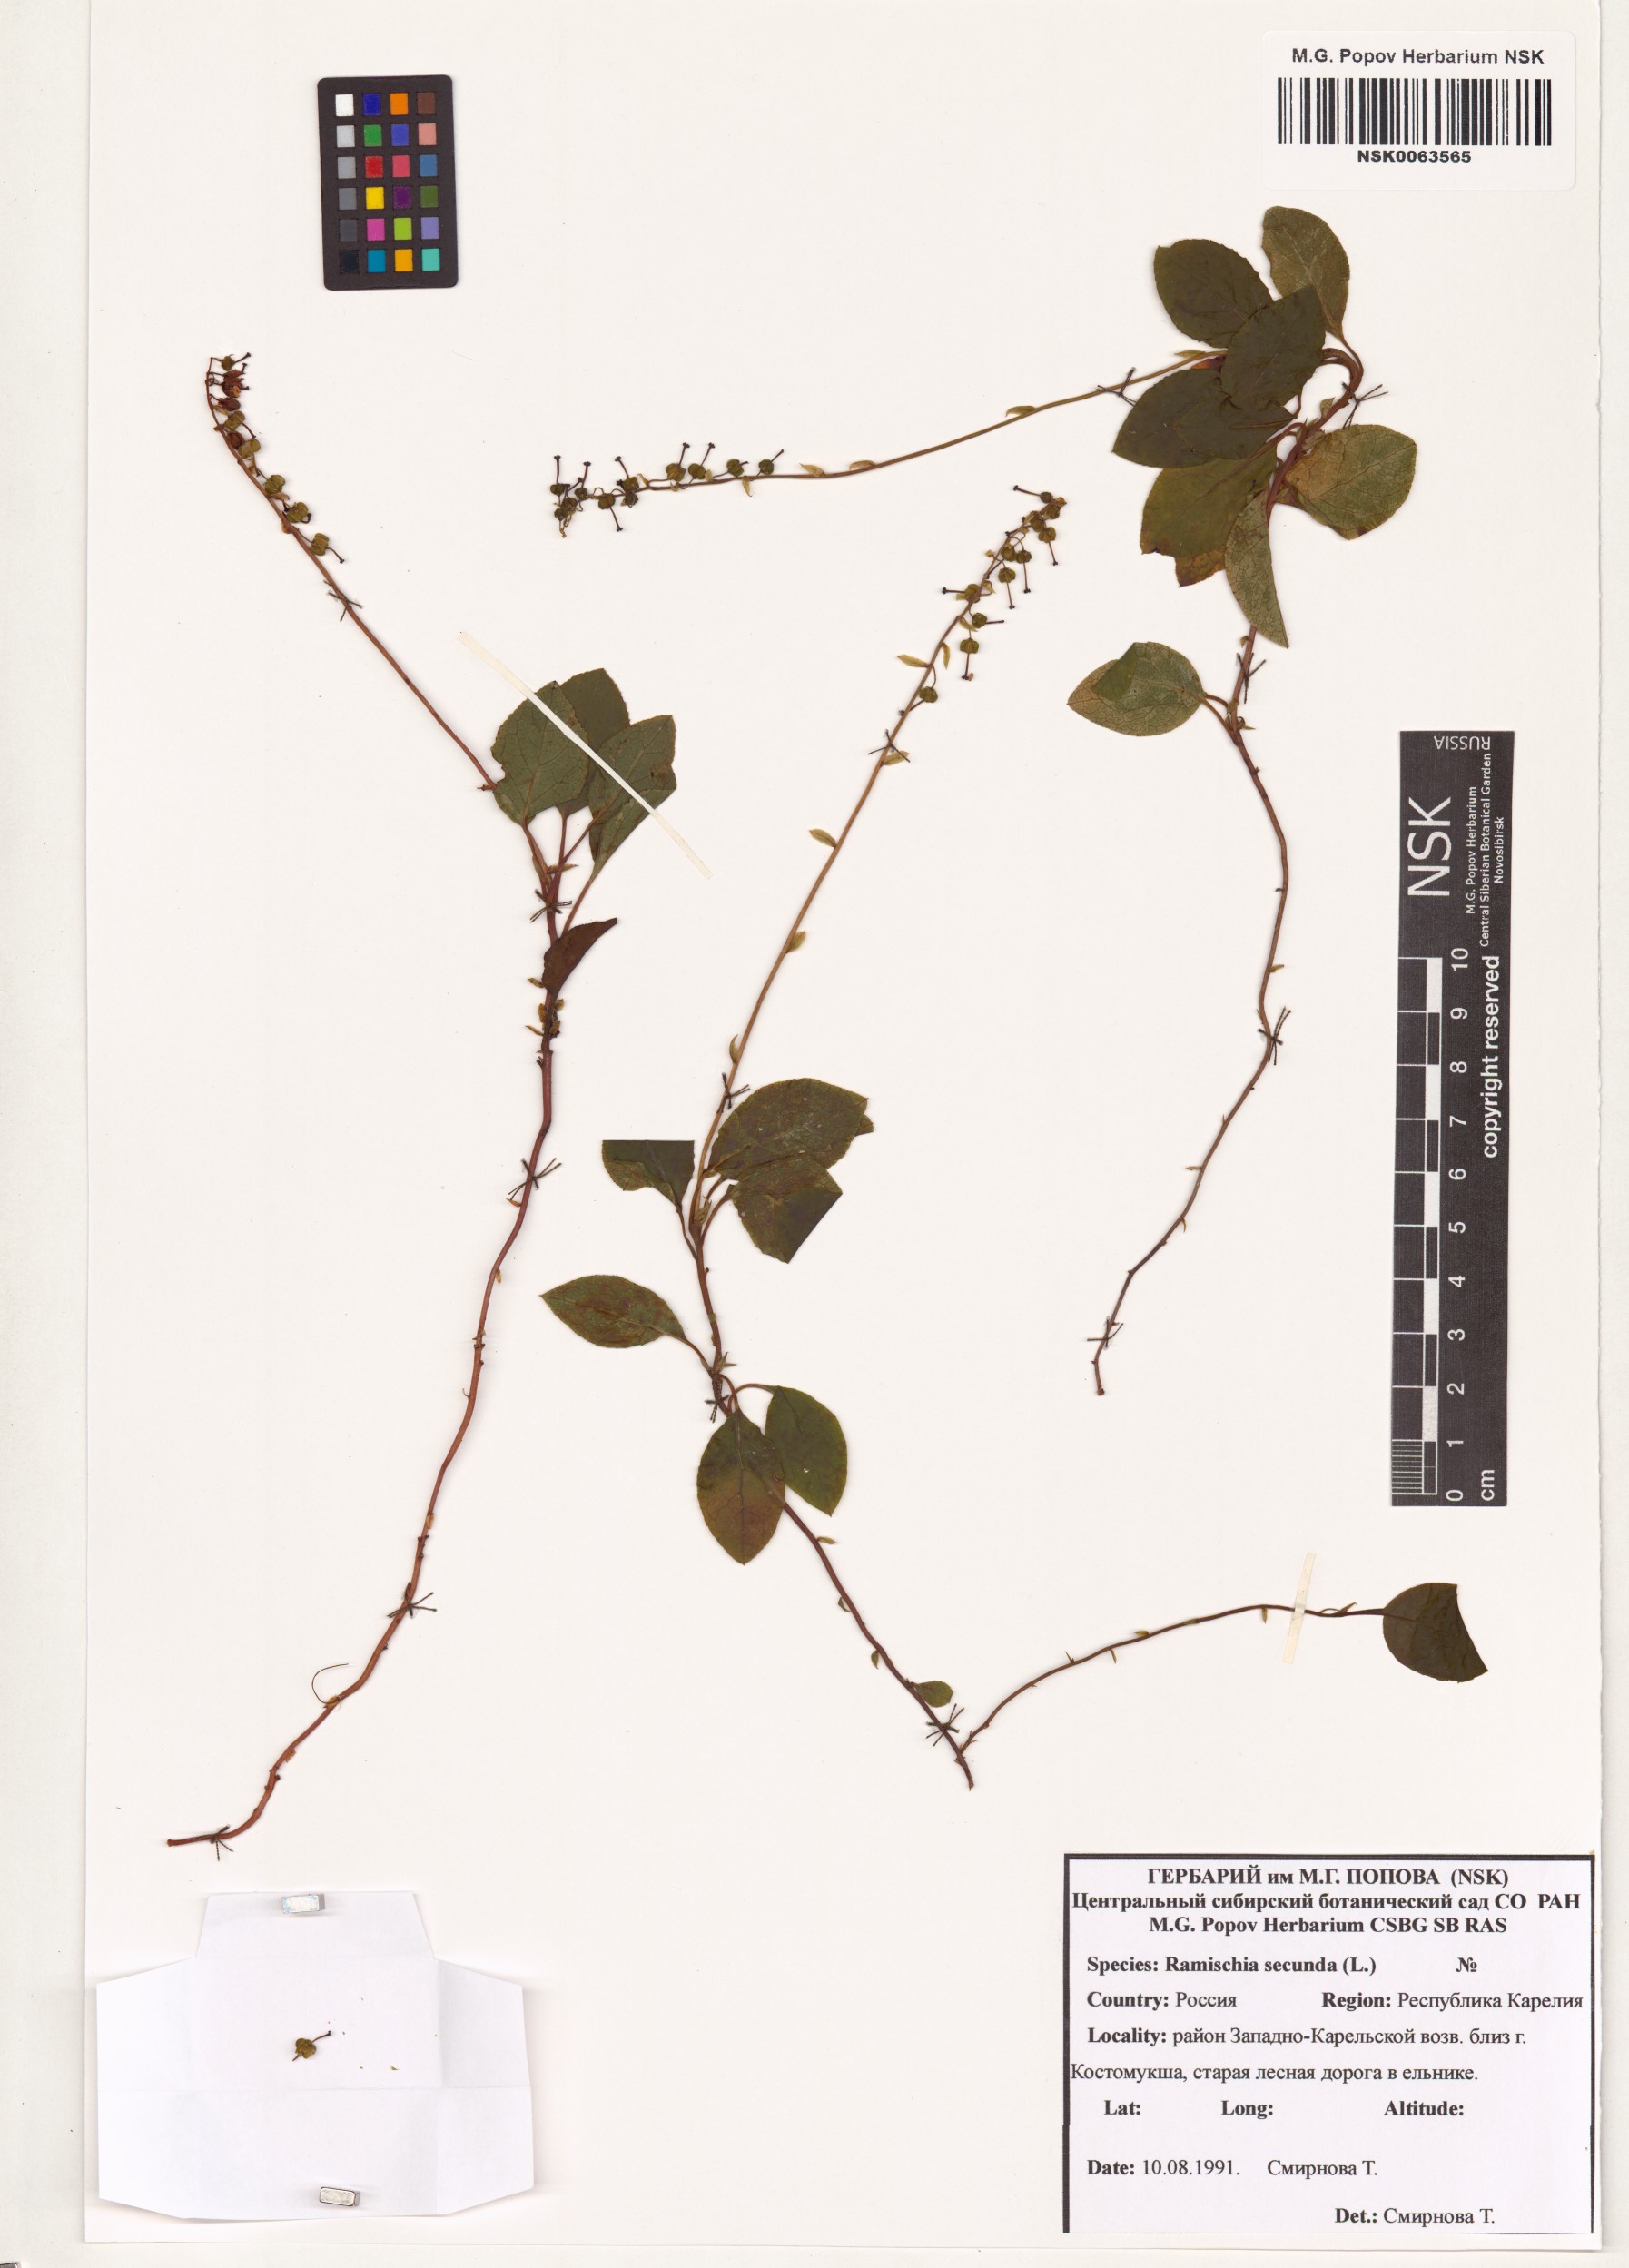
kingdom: Plantae
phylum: Tracheophyta
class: Magnoliopsida
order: Ericales
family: Ericaceae
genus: Orthilia
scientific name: Orthilia secunda
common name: One-sided orthilia
